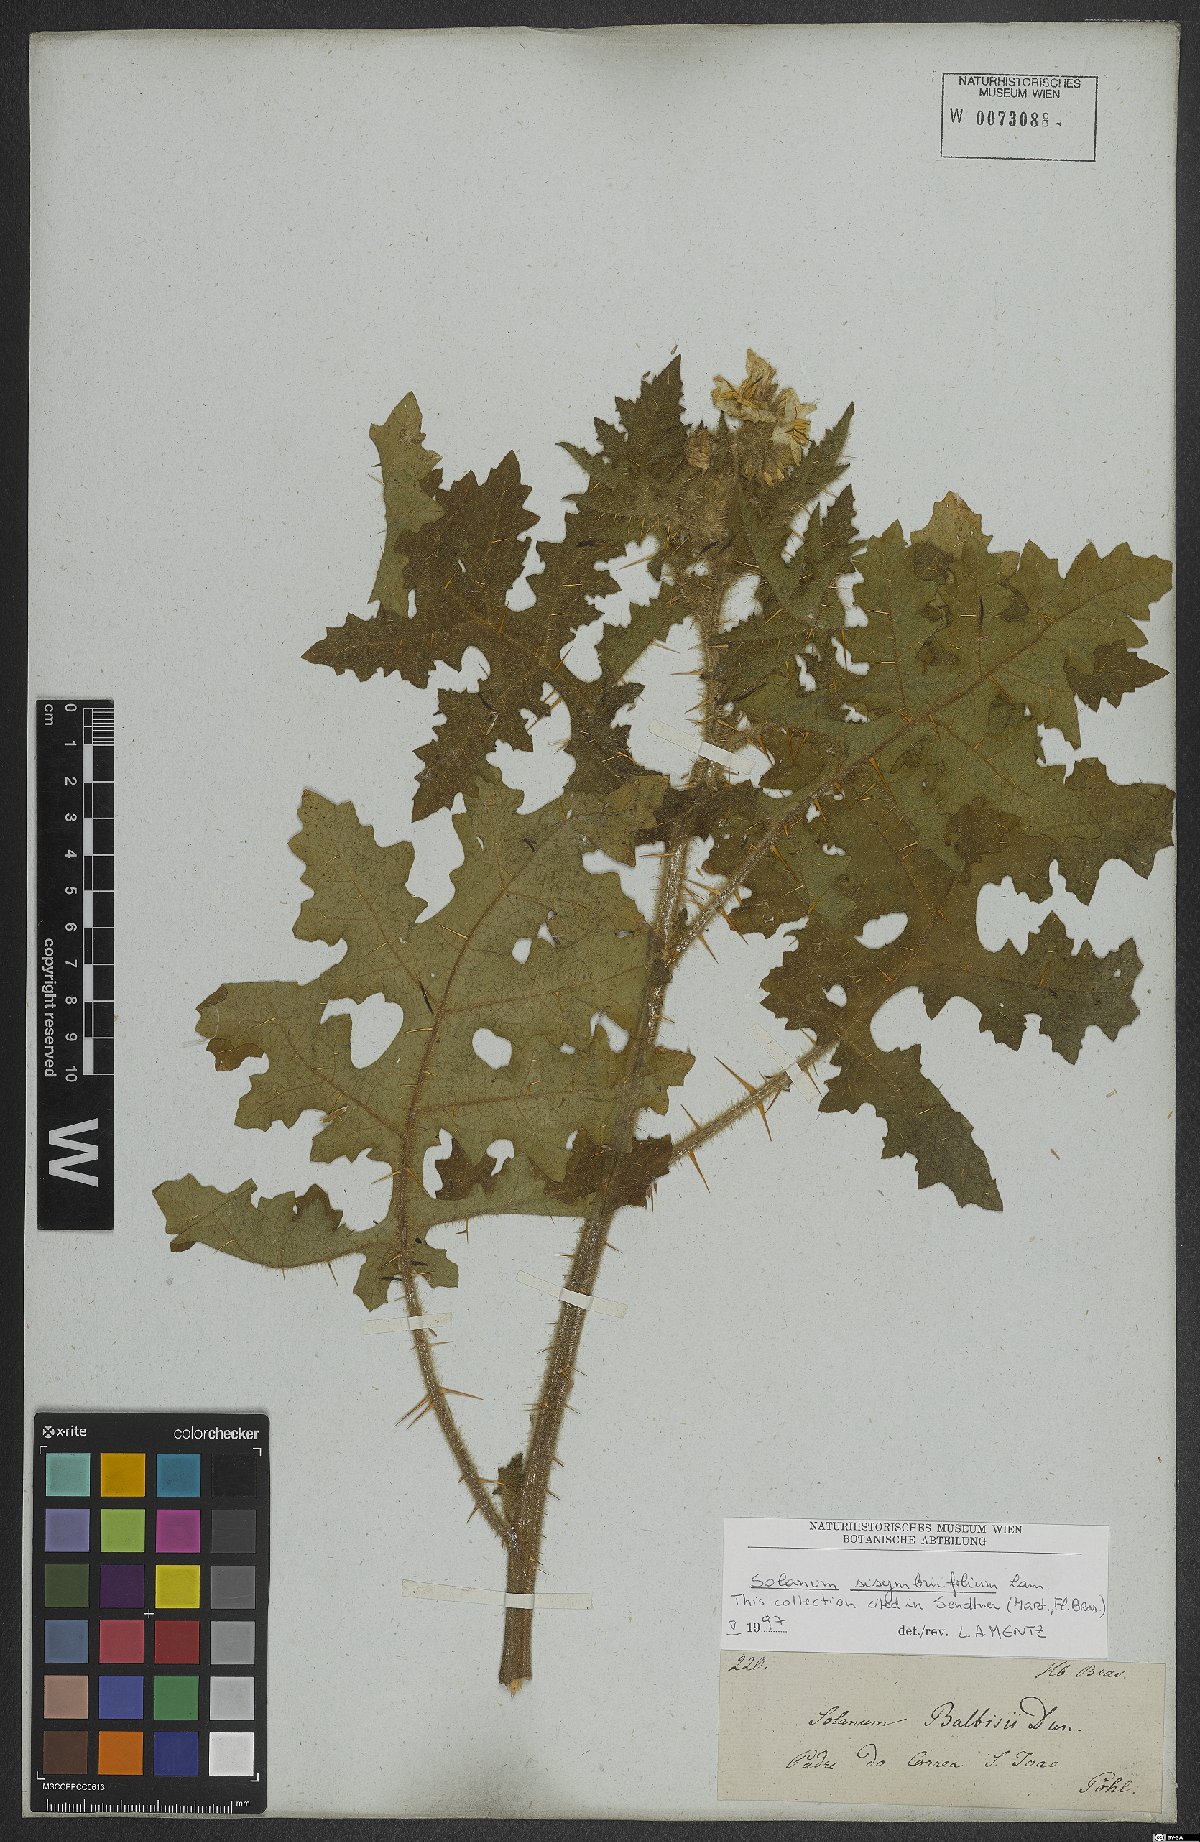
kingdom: Plantae
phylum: Tracheophyta
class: Magnoliopsida
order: Solanales
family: Solanaceae
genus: Solanum
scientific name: Solanum sisymbriifolium
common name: Red buffalo-bur
